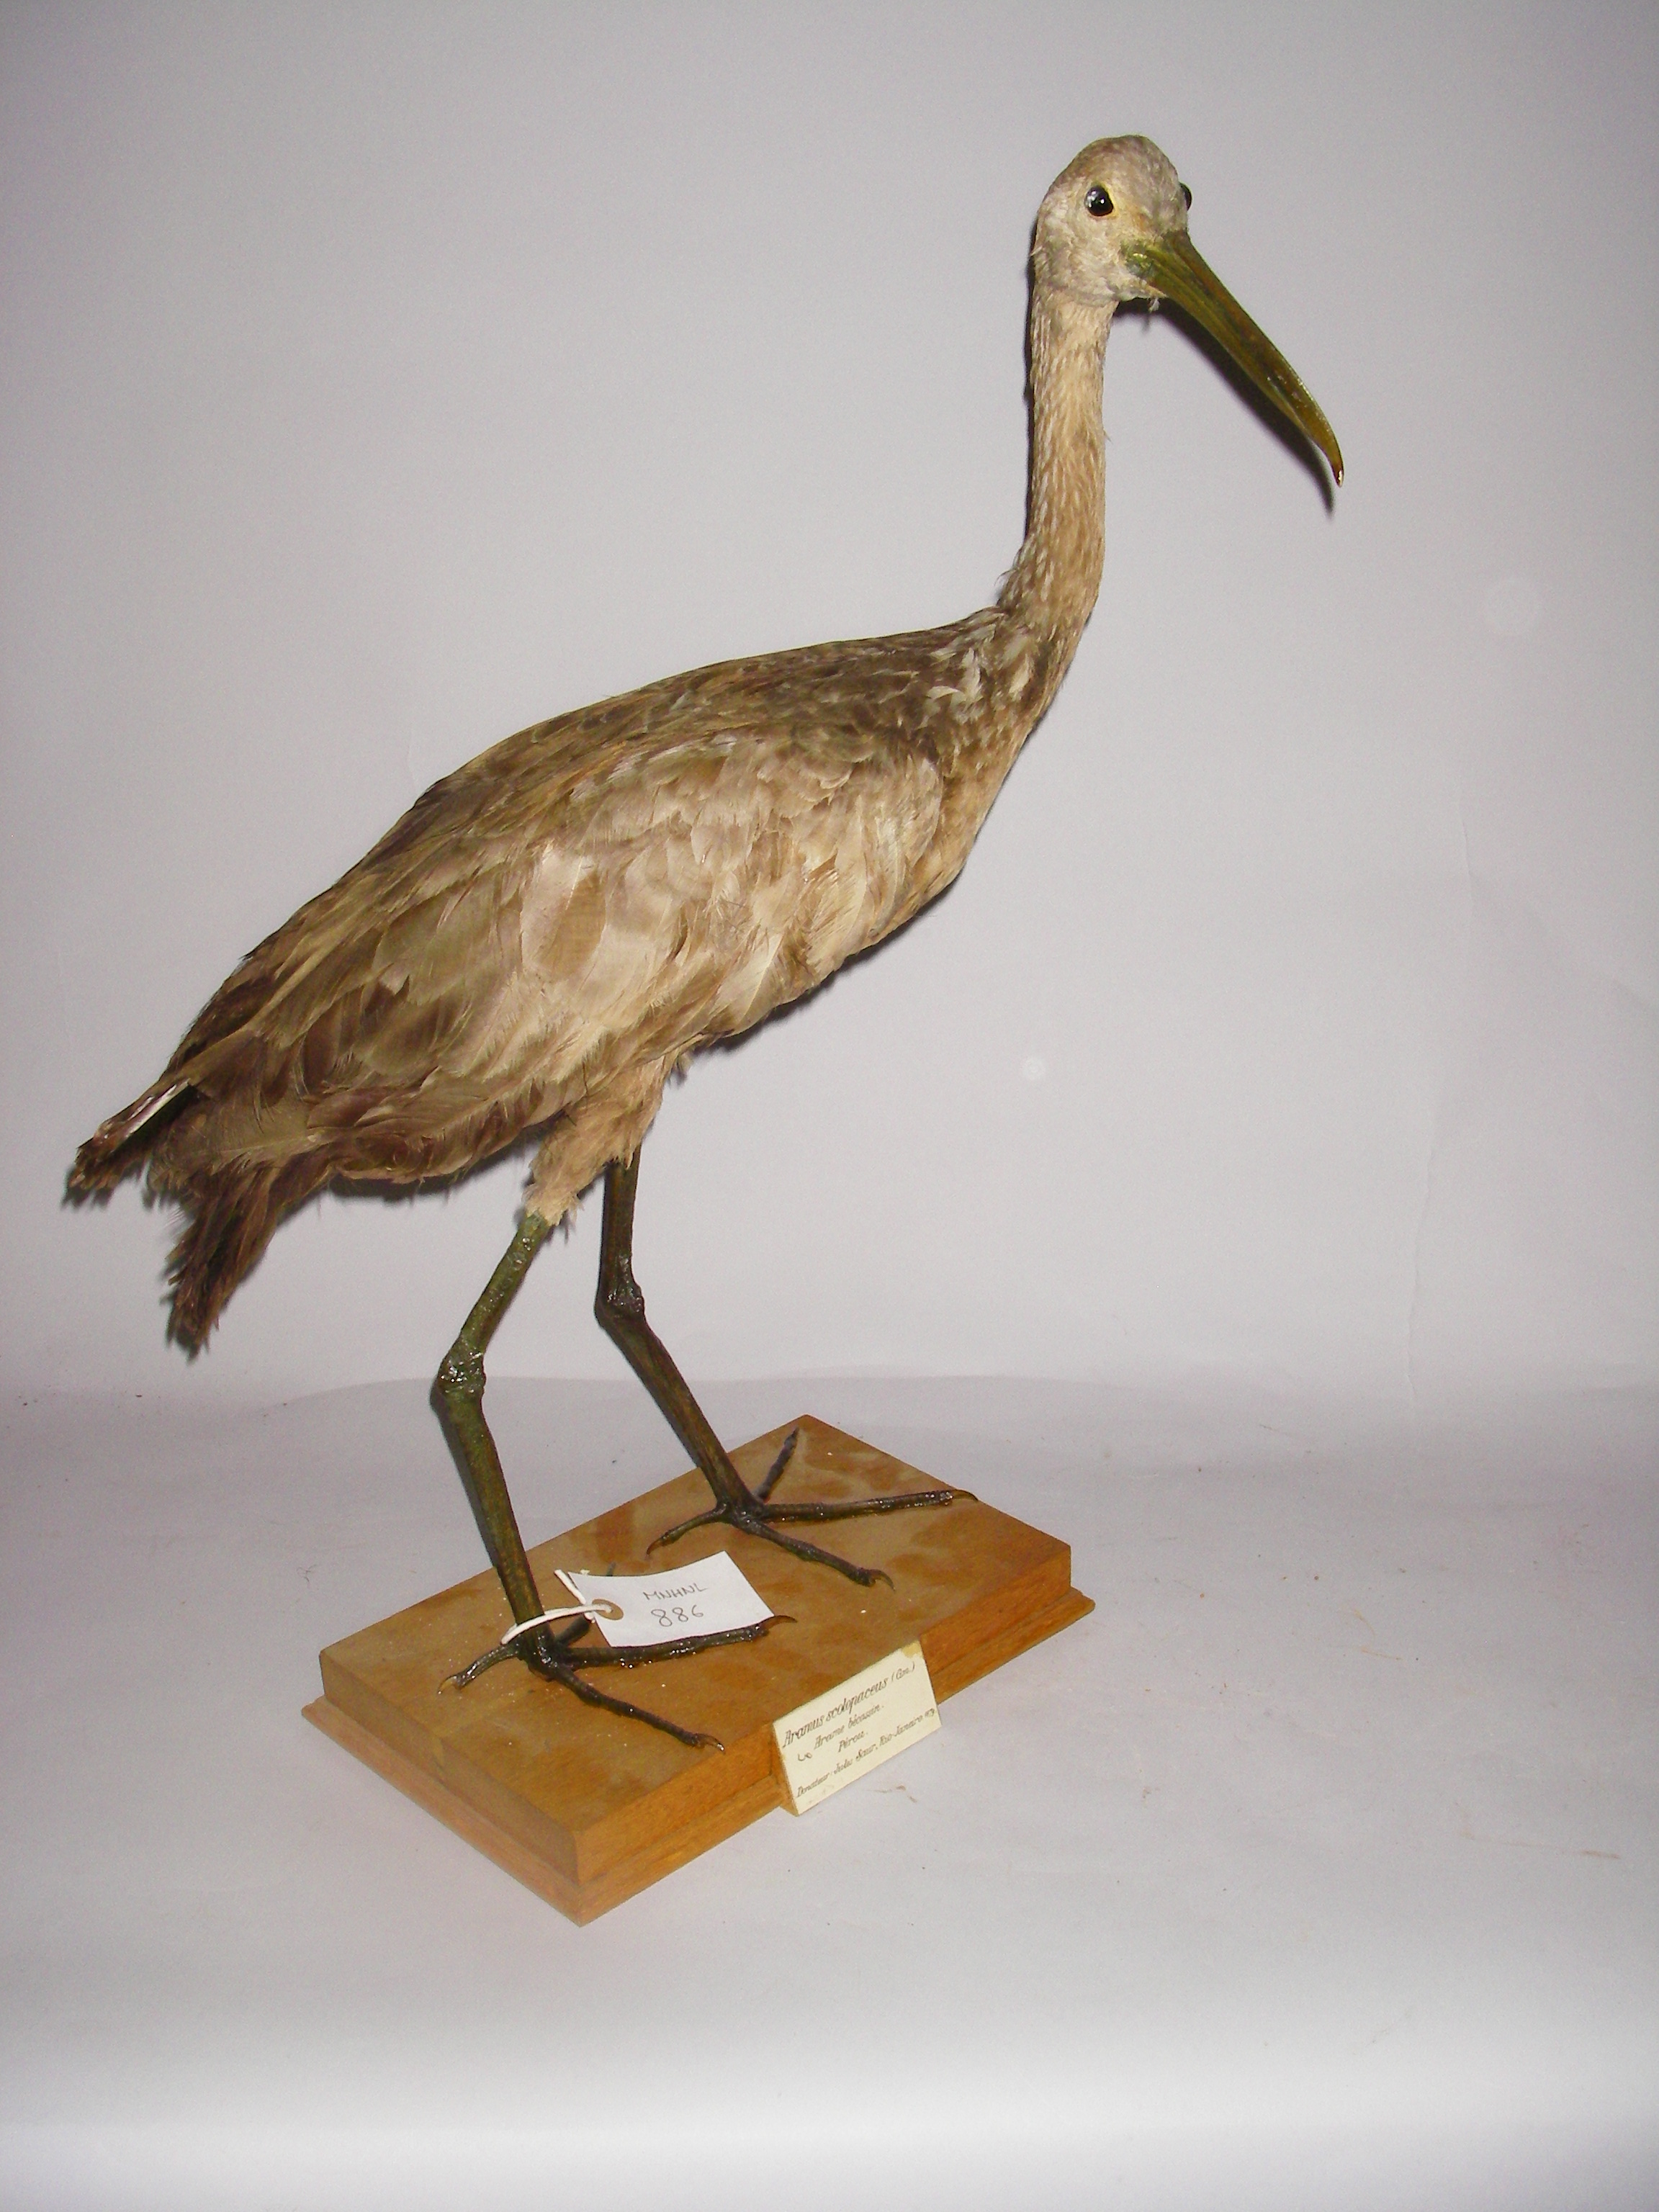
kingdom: Animalia
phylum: Chordata
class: Aves
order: Gruiformes
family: Aramidae
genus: Aramus
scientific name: Aramus guarauna
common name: Limpkin
